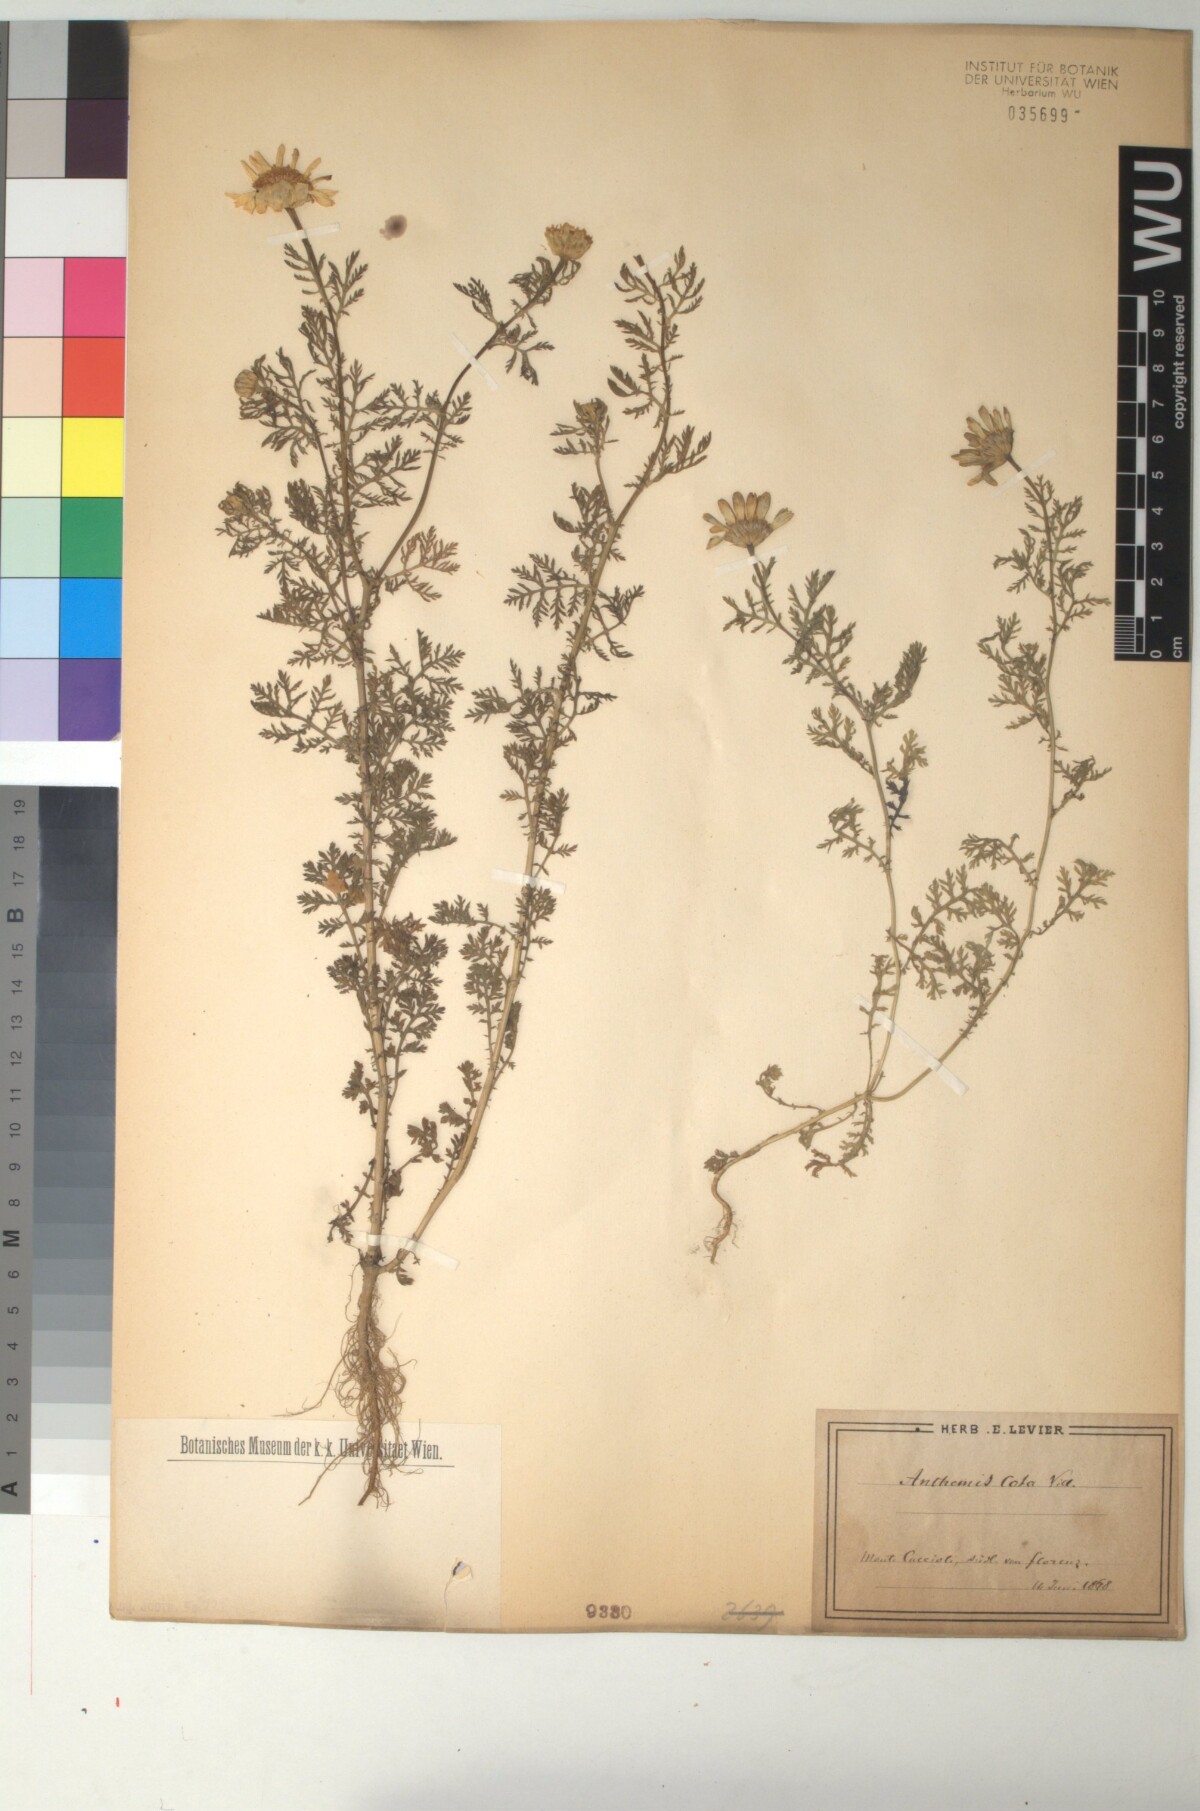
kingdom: Plantae
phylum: Tracheophyta
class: Magnoliopsida
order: Asterales
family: Asteraceae
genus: Cota
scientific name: Cota altissima
